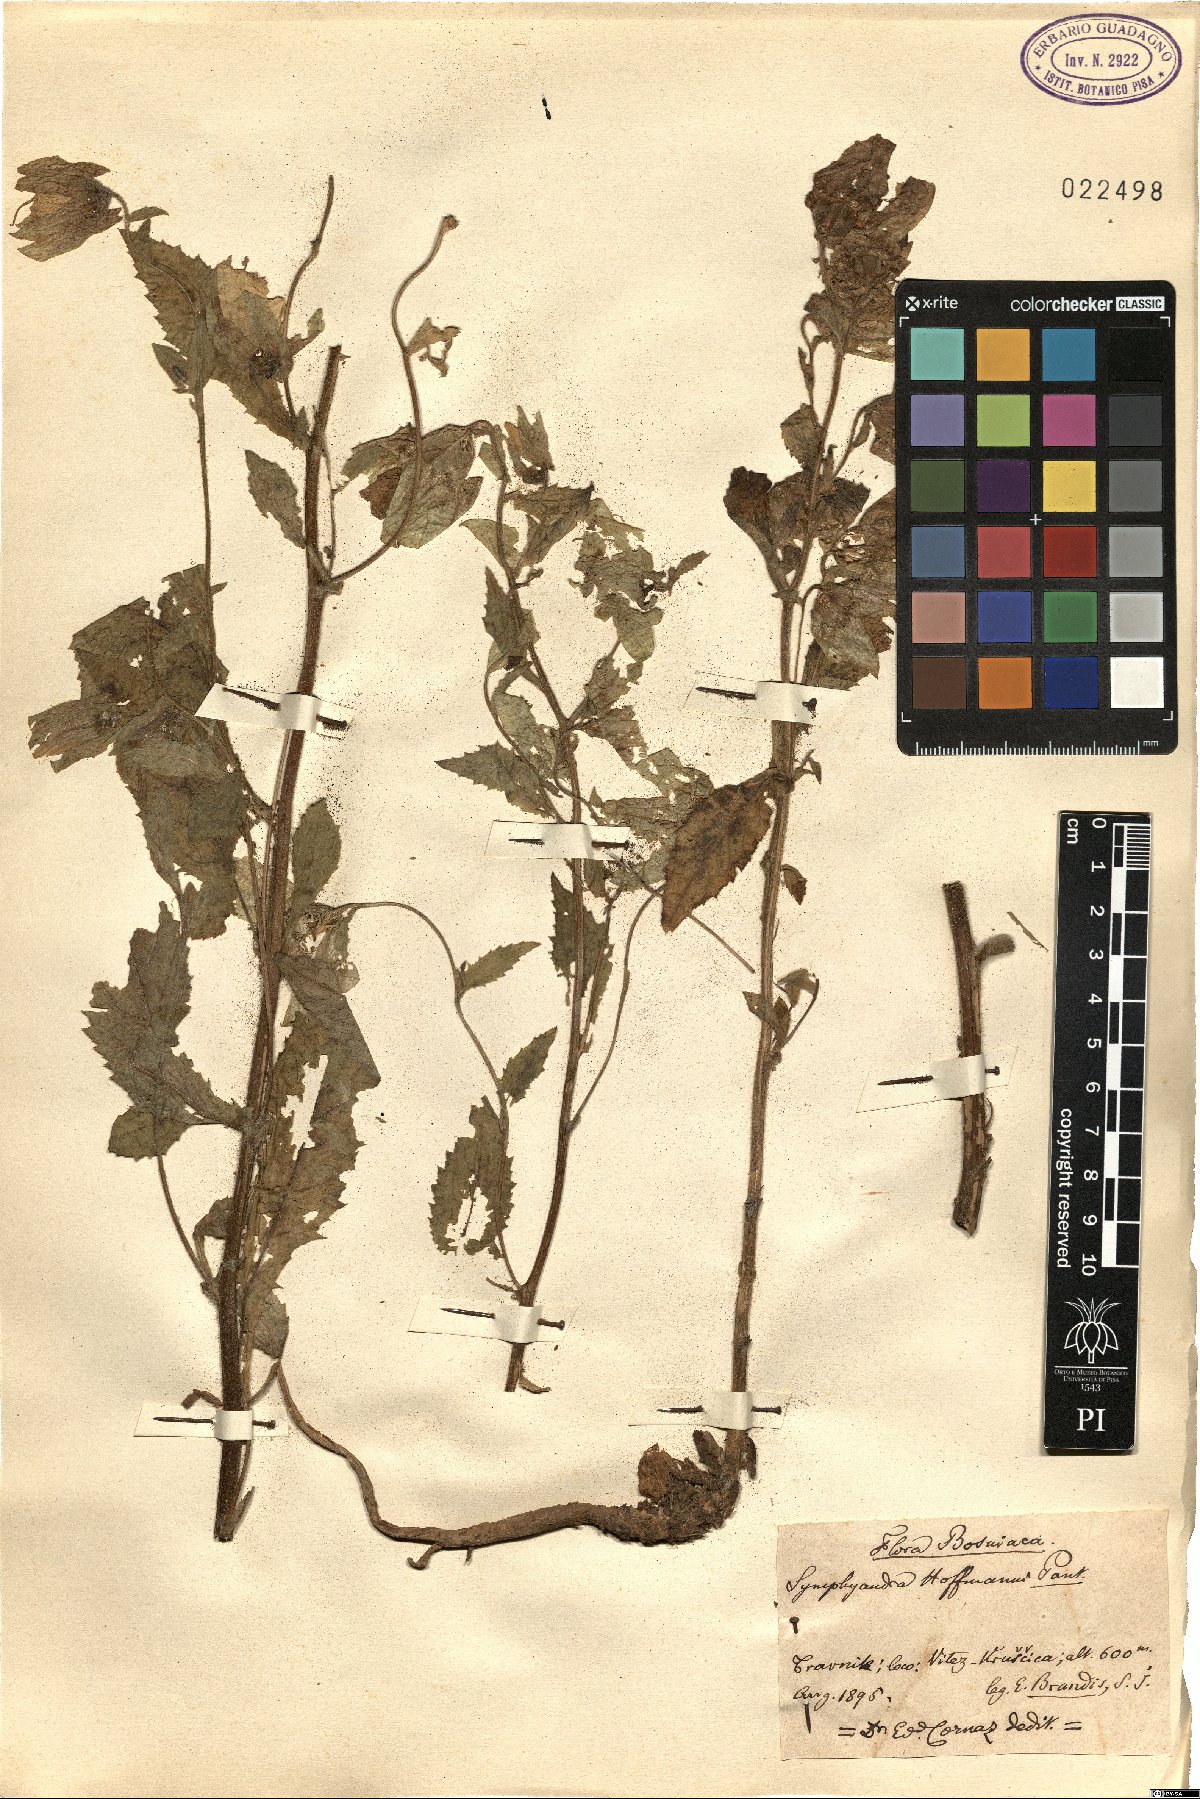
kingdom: Plantae
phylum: Tracheophyta
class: Magnoliopsida
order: Asterales
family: Campanulaceae
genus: Campanula
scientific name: Campanula hofmannii
